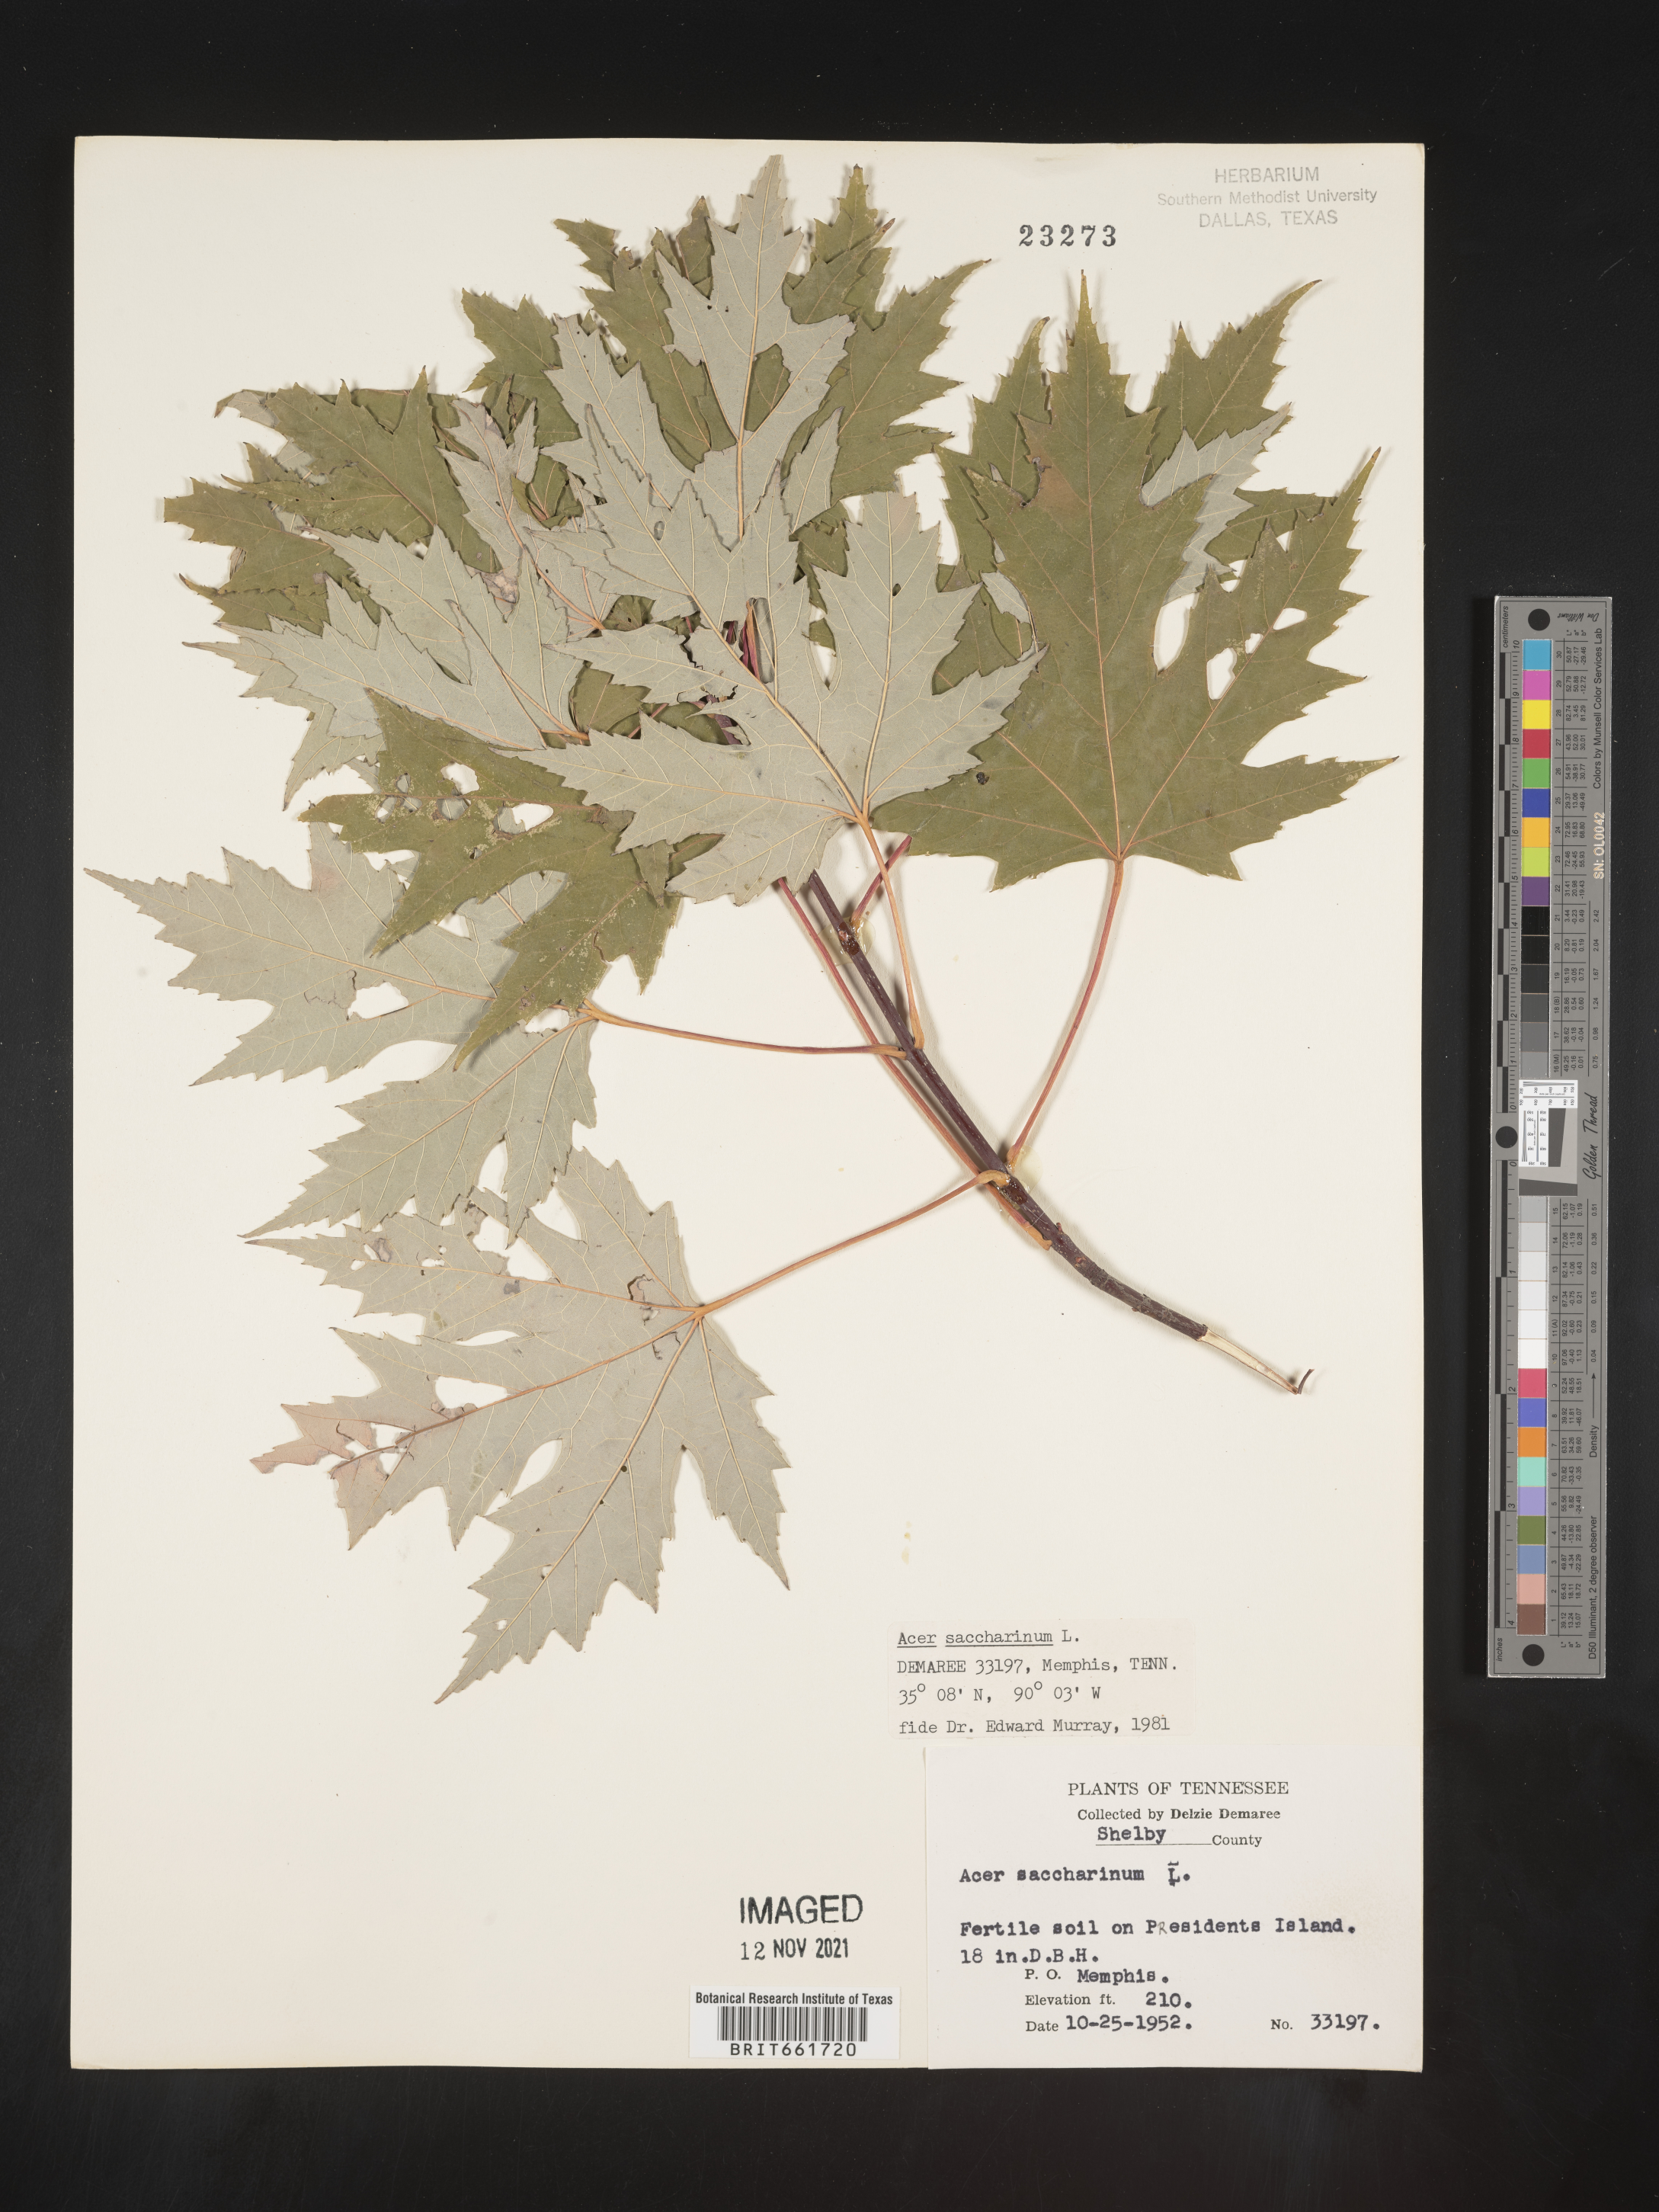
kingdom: Plantae
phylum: Tracheophyta
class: Magnoliopsida
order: Sapindales
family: Sapindaceae
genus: Acer
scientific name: Acer saccharinum
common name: Silver maple
